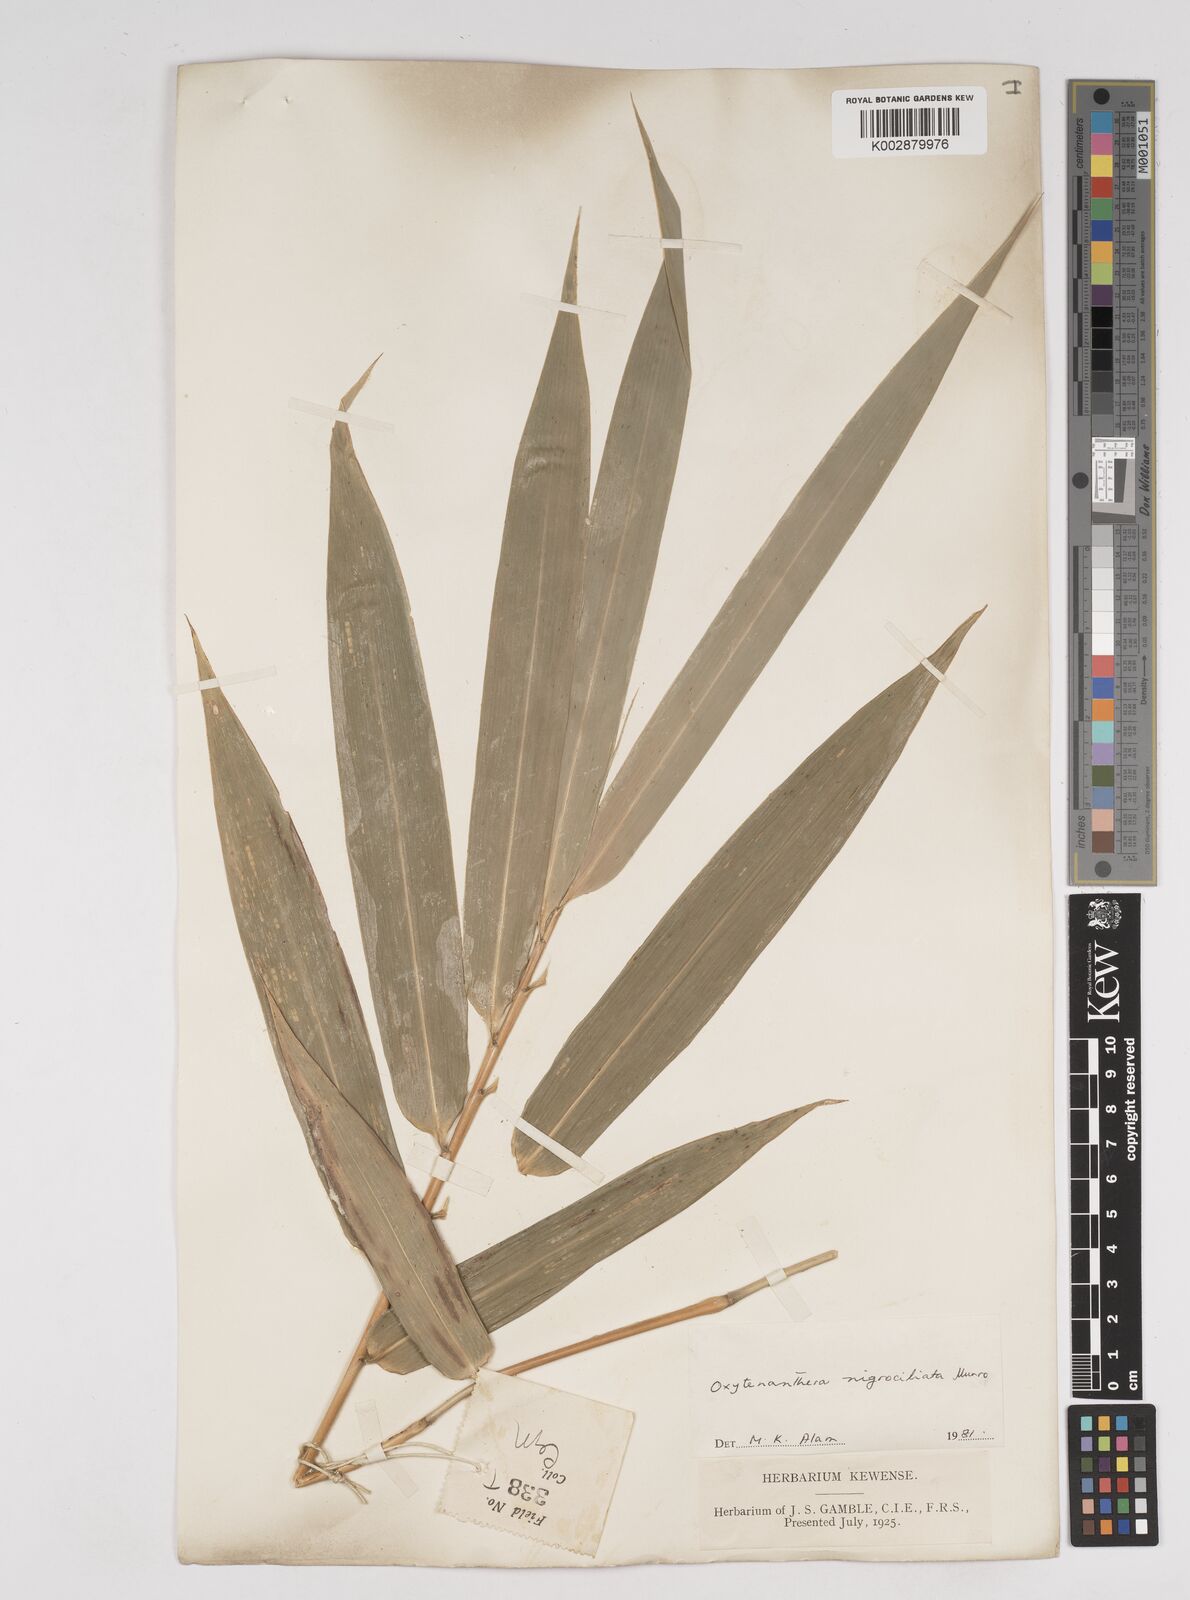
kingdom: Plantae
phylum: Tracheophyta
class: Liliopsida
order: Poales
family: Poaceae
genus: Gigantochloa
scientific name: Gigantochloa nigrociliata
